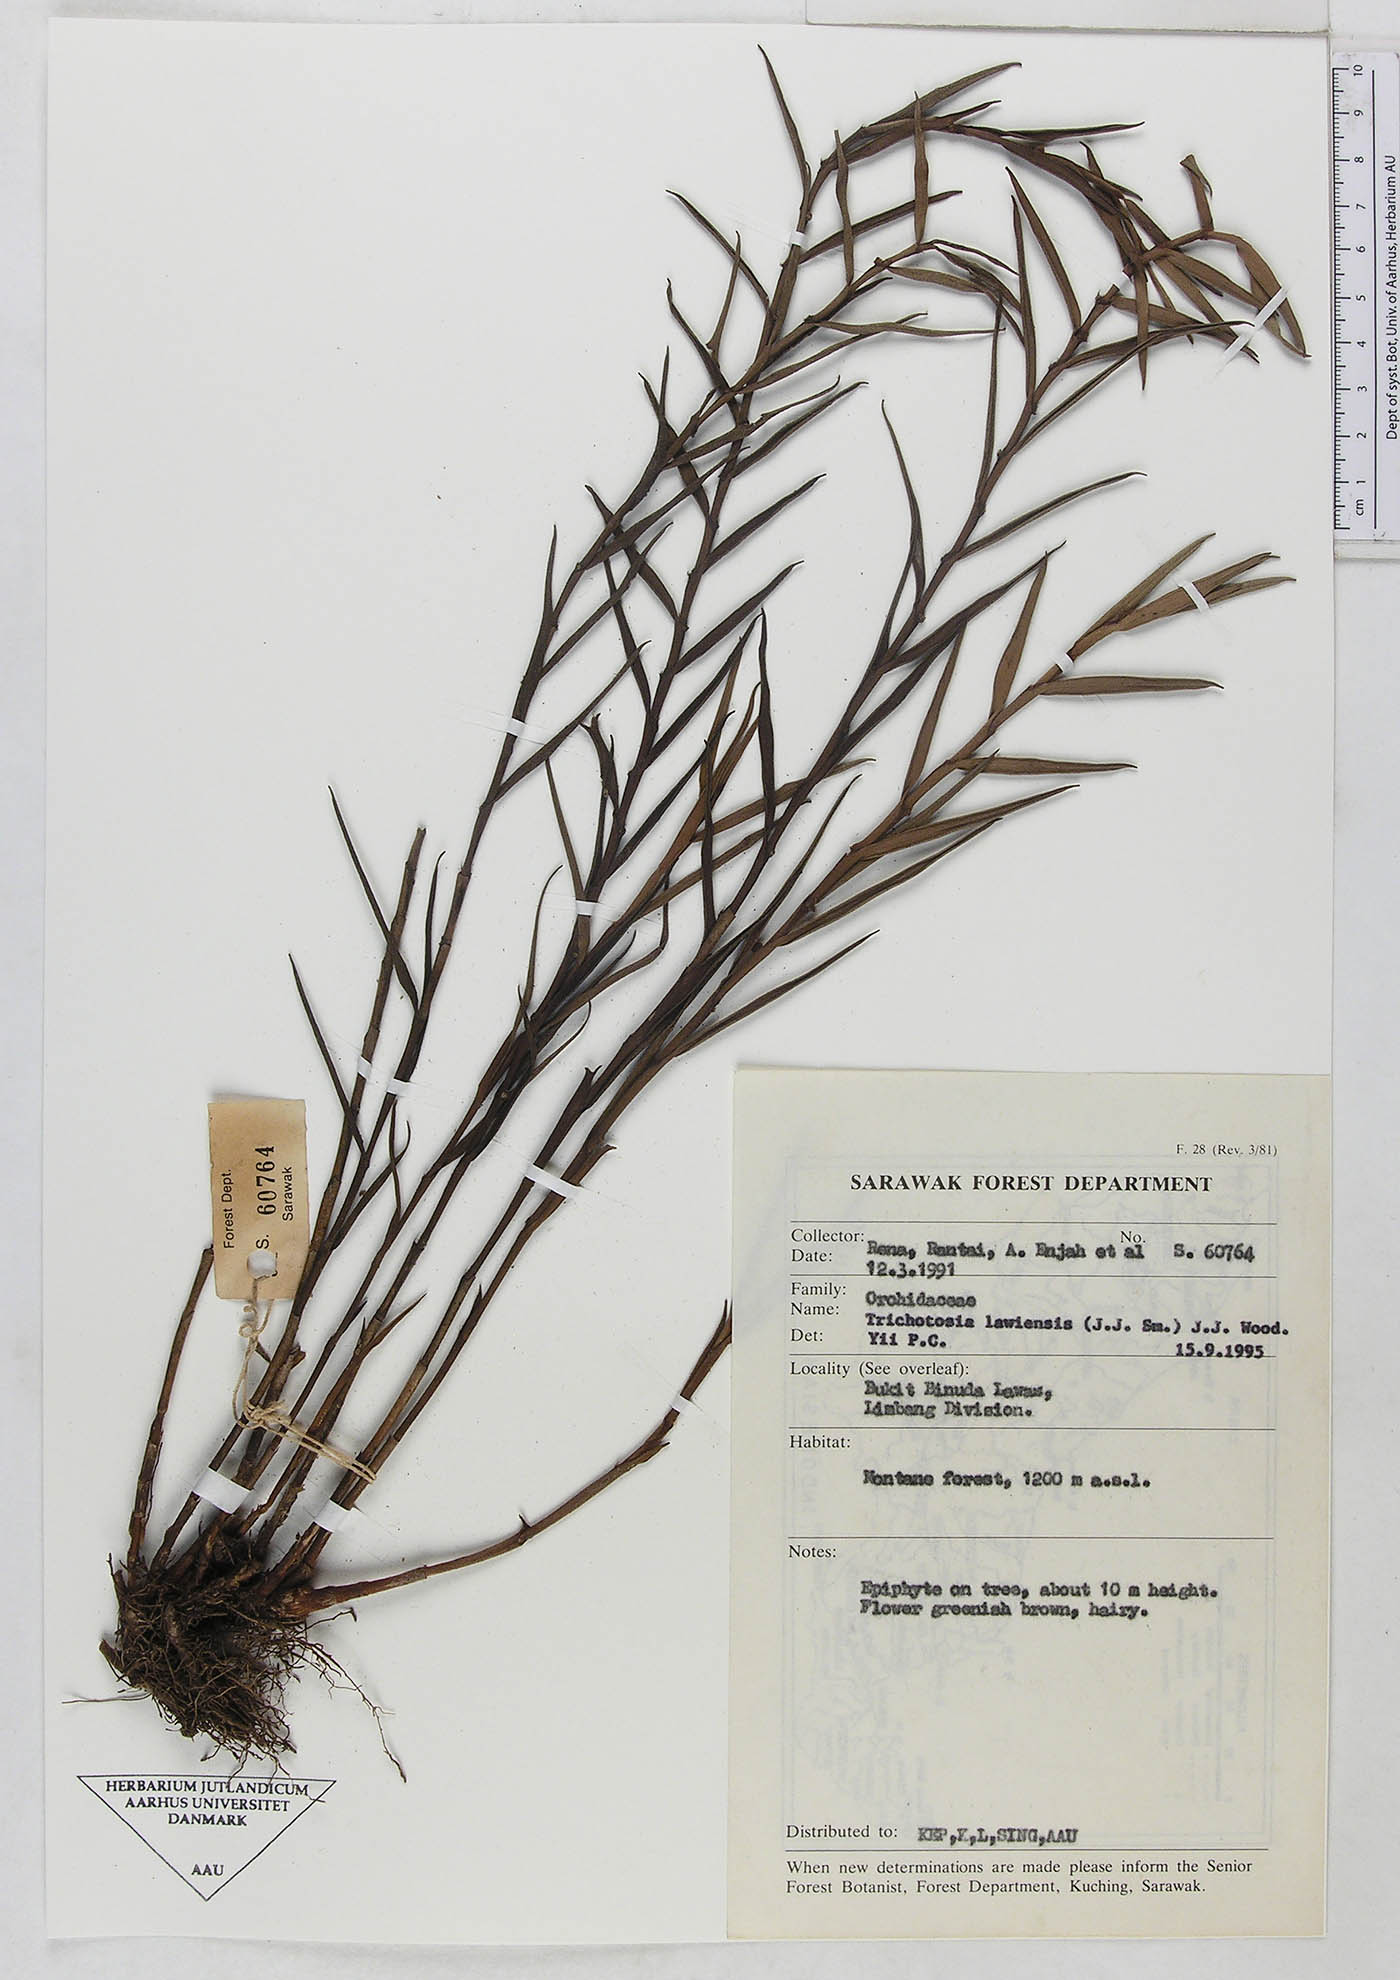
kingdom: Plantae
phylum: Tracheophyta
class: Liliopsida
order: Asparagales
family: Orchidaceae
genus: Trichotosia
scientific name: Trichotosia lawiensis
